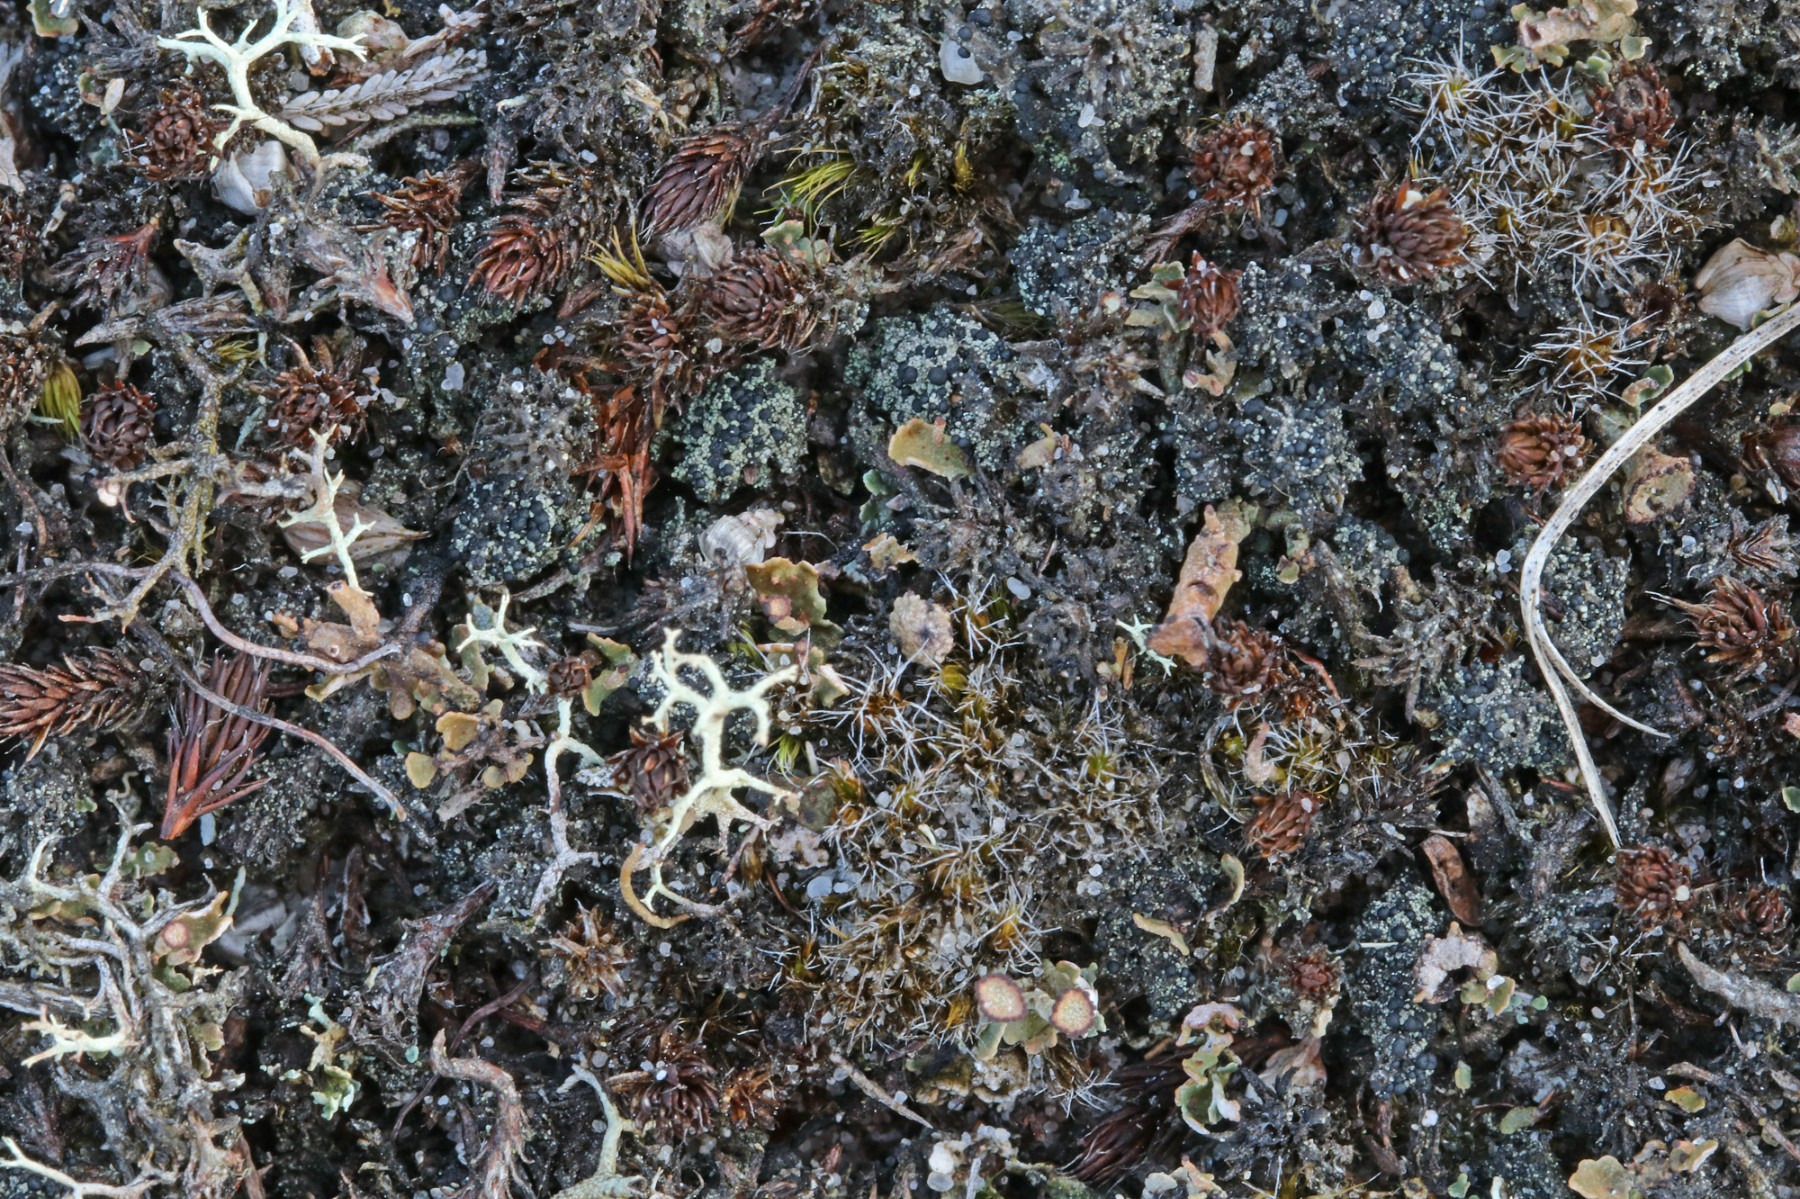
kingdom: Fungi
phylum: Ascomycota
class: Lecanoromycetes
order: Lecanorales
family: Byssolomataceae
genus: Micarea
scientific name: Micarea lignaria
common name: tørve-knaplav
